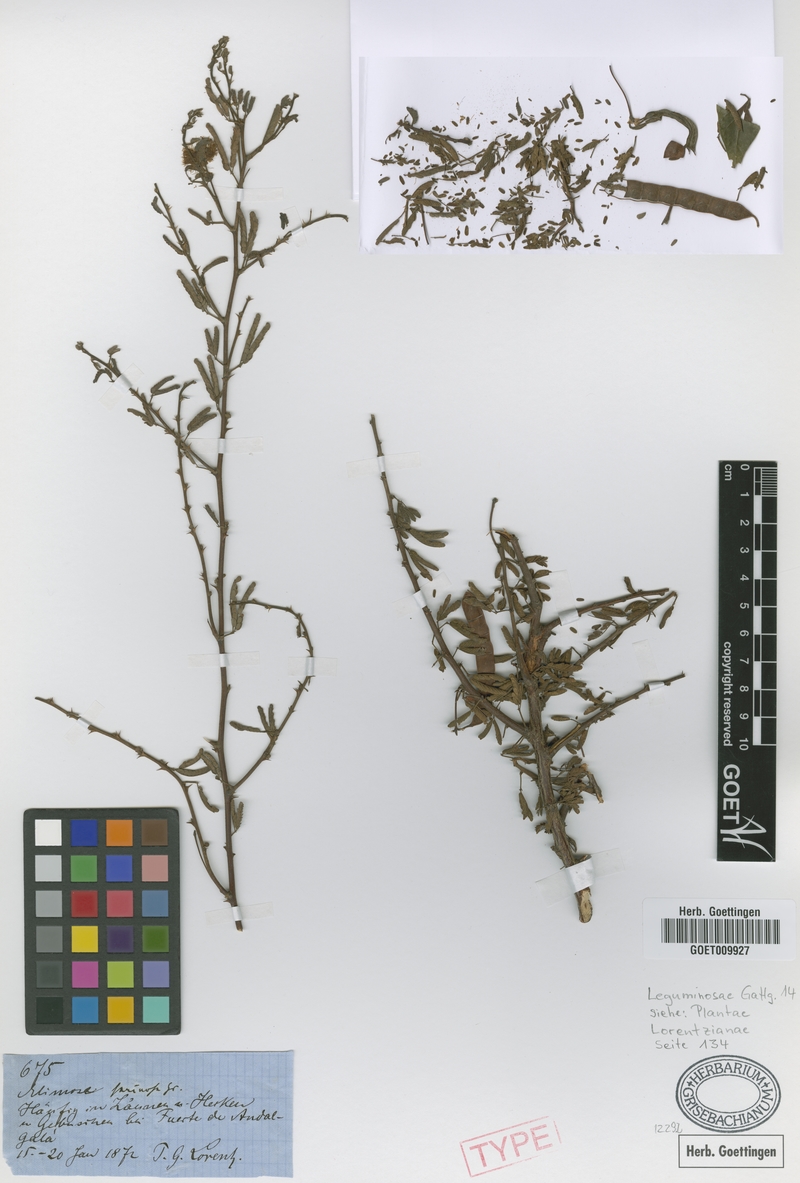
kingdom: Plantae
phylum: Tracheophyta
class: Magnoliopsida
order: Fabales
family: Fabaceae
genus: Mimosa
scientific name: Mimosa farinosa
